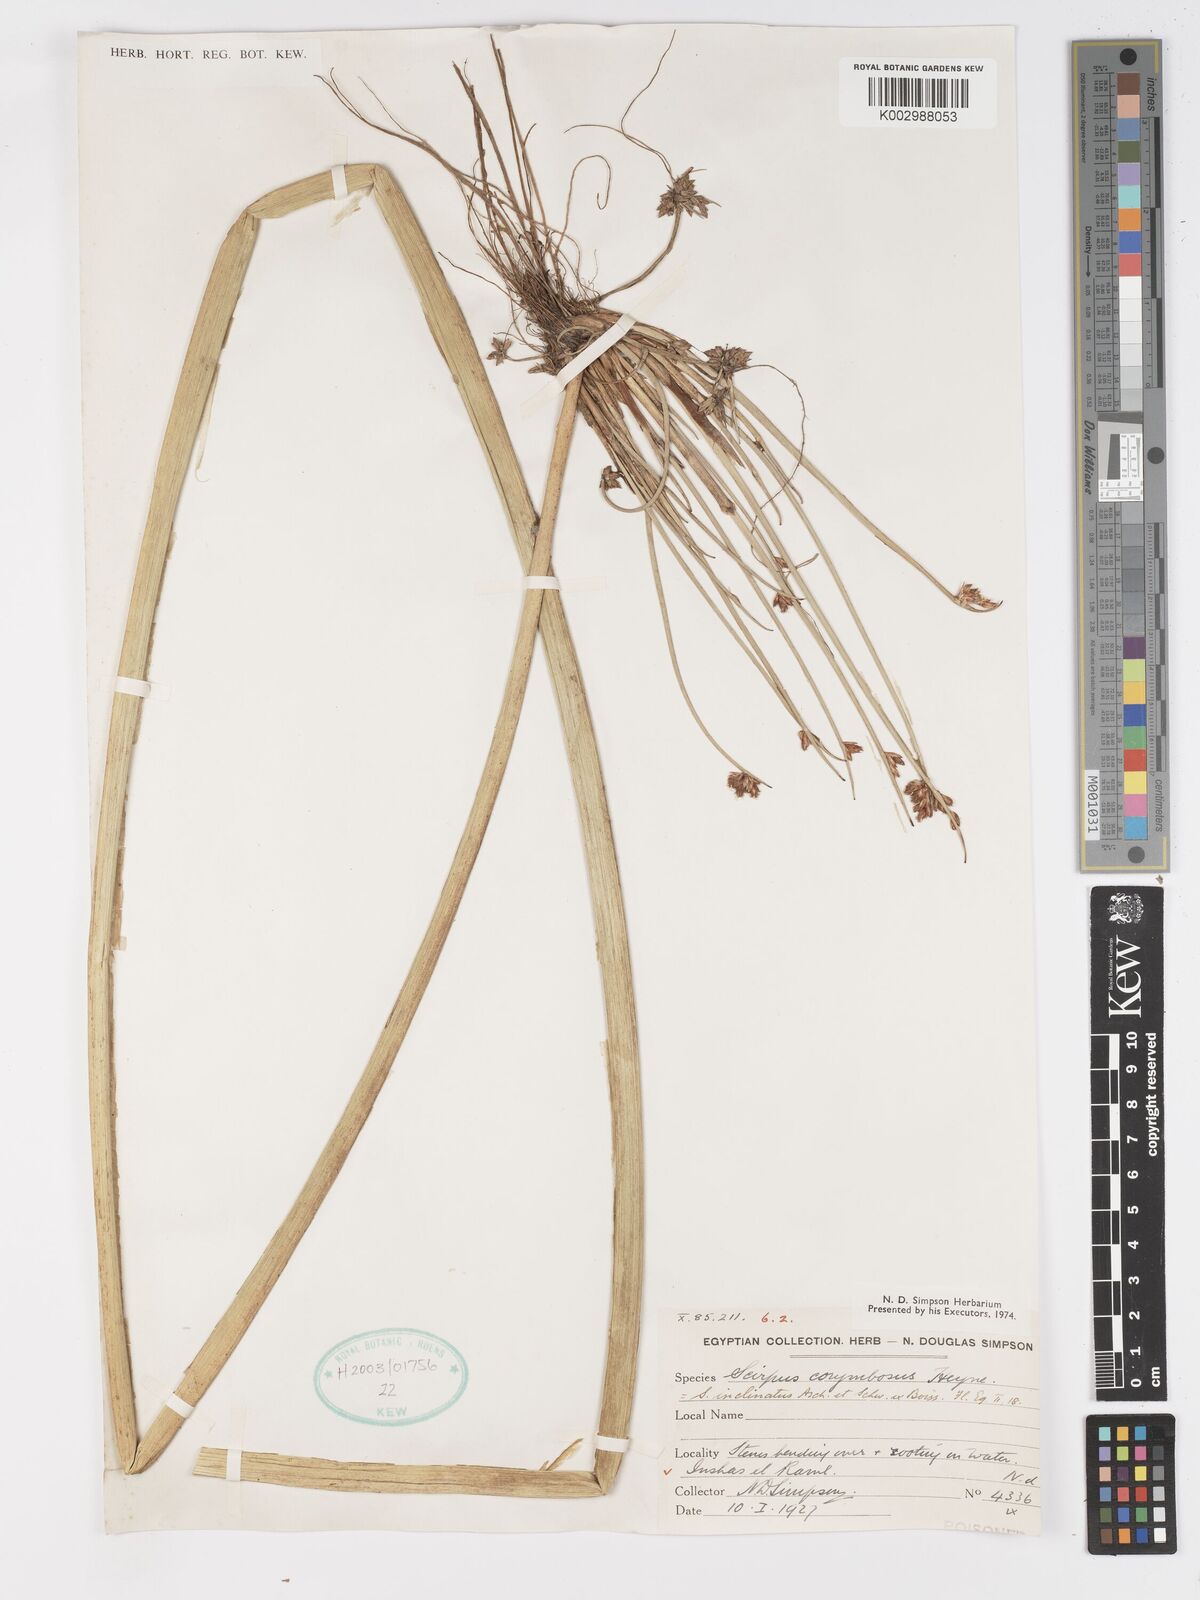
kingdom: Plantae
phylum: Tracheophyta
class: Liliopsida
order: Poales
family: Cyperaceae
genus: Schoenoplectiella
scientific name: Schoenoplectiella corymbosa
